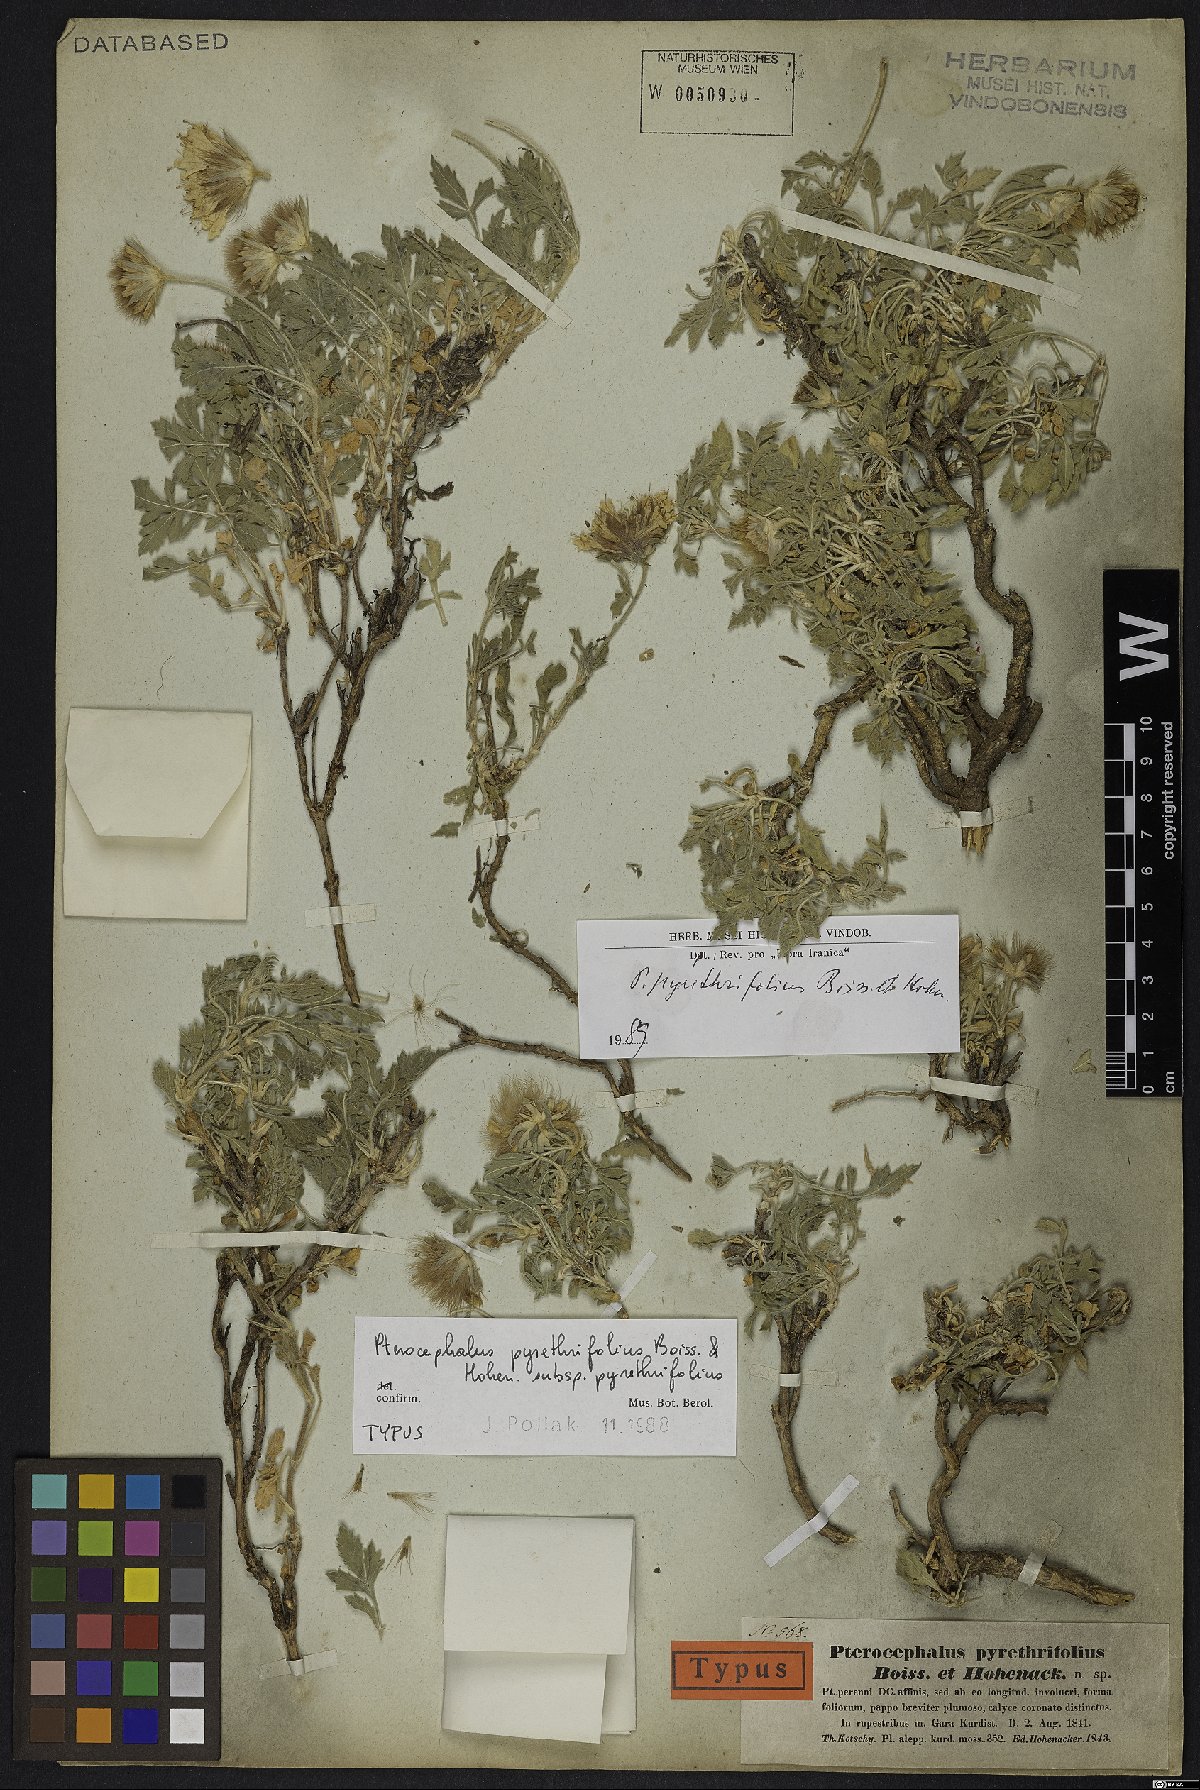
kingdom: Plantae
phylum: Tracheophyta
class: Magnoliopsida
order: Dipsacales
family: Caprifoliaceae
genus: Pterocephalus
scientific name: Pterocephalus pyrethrifolius
